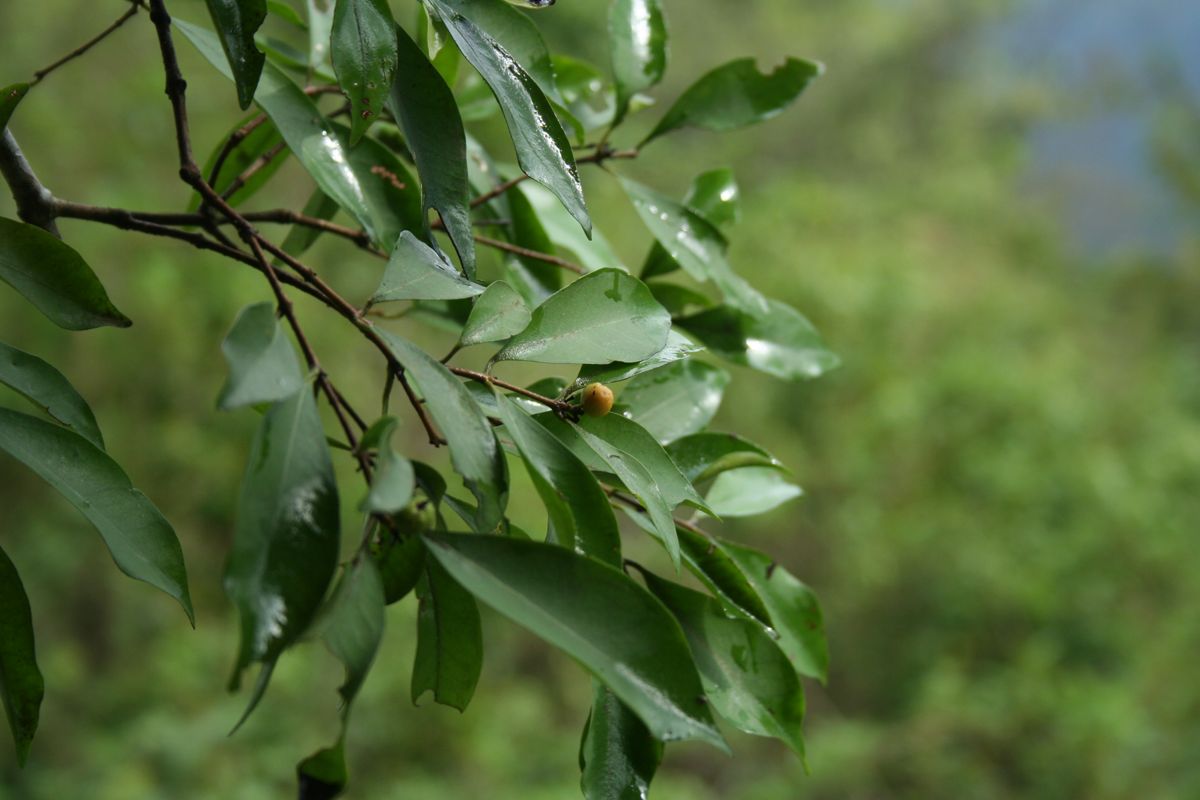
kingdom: Plantae
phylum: Tracheophyta
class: Magnoliopsida
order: Myrtales
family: Myrtaceae
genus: Eugenia
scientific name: Eugenia costaricensis
